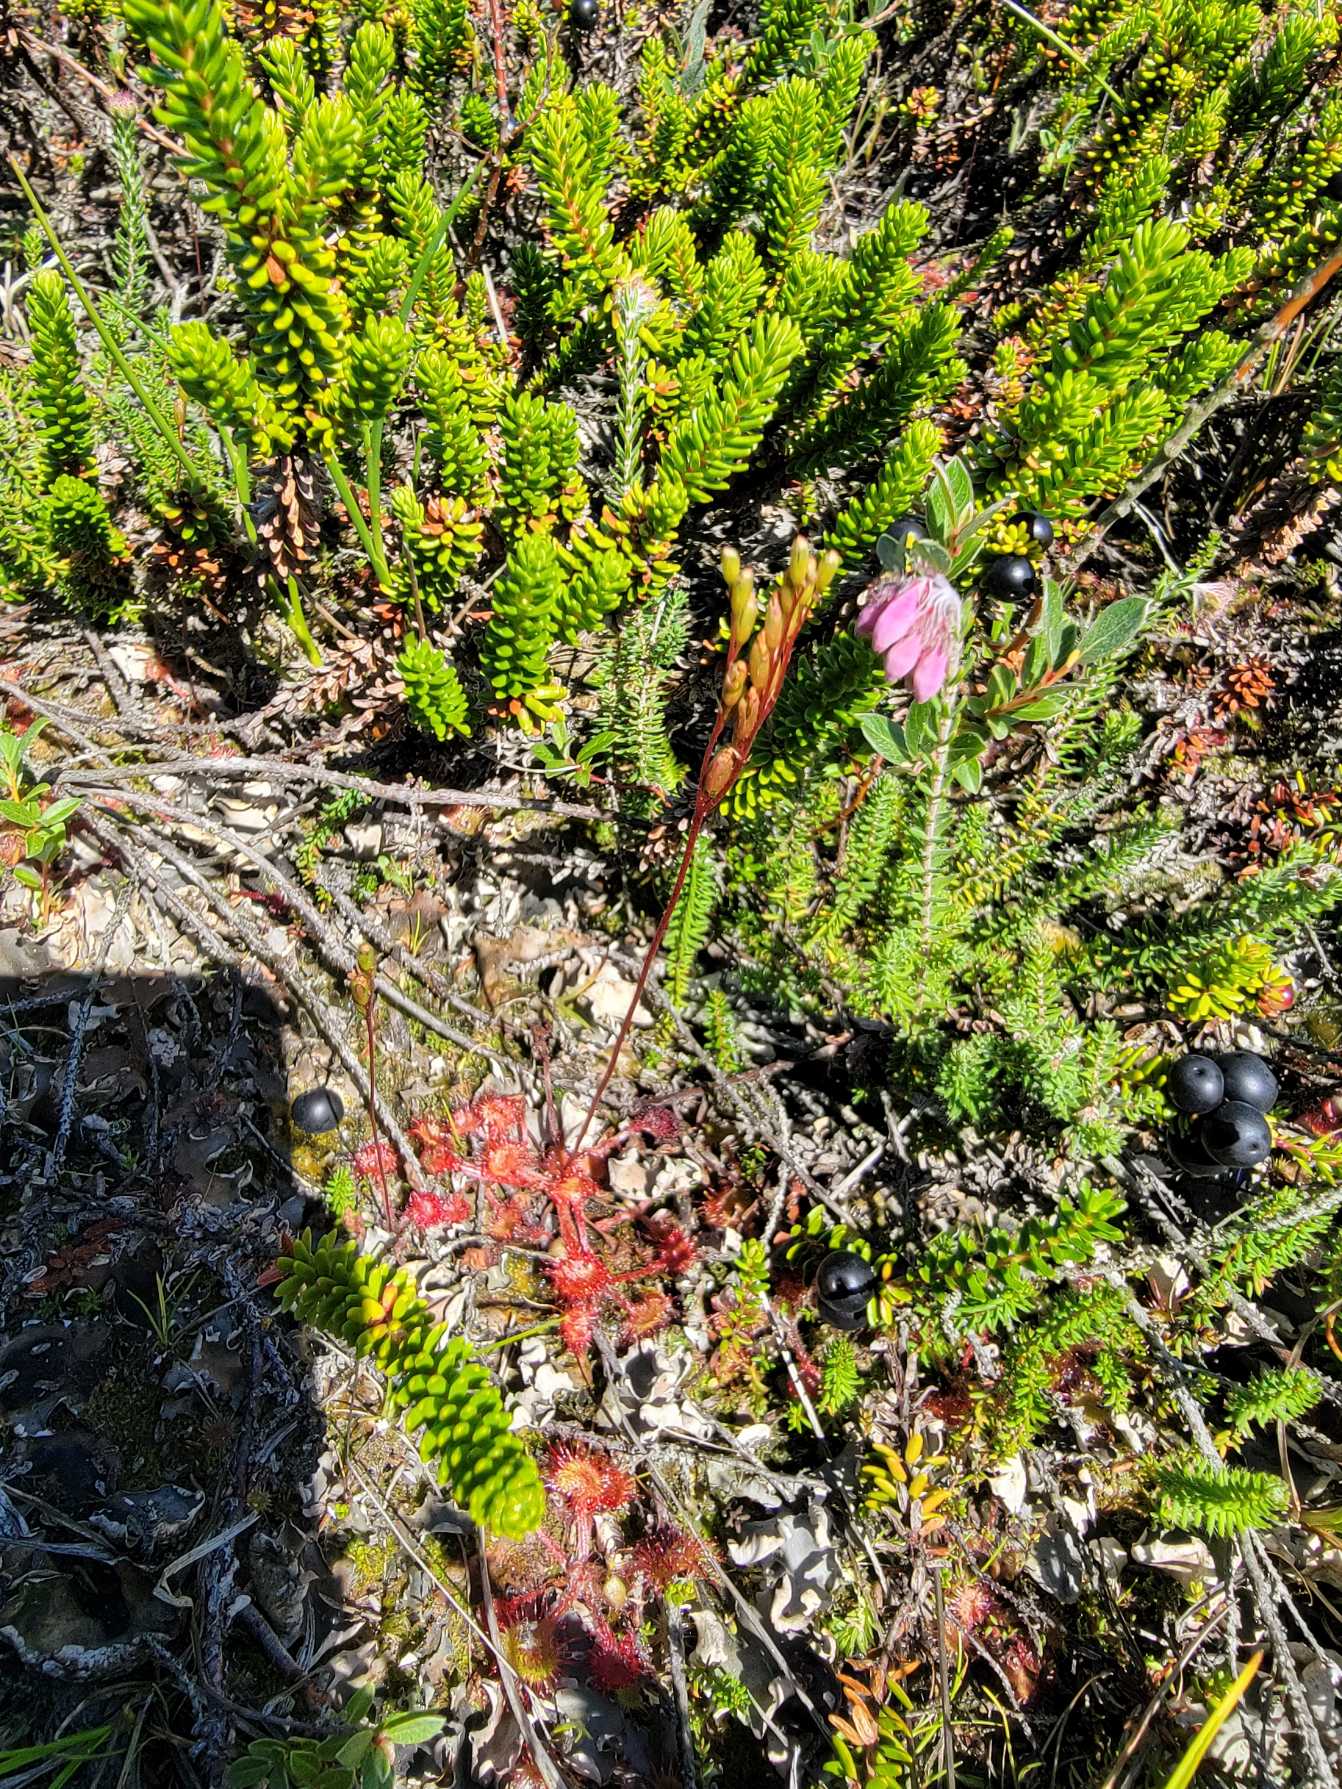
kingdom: Plantae
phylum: Tracheophyta
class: Magnoliopsida
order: Caryophyllales
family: Droseraceae
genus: Drosera
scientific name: Drosera rotundifolia
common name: Rundbladet soldug
